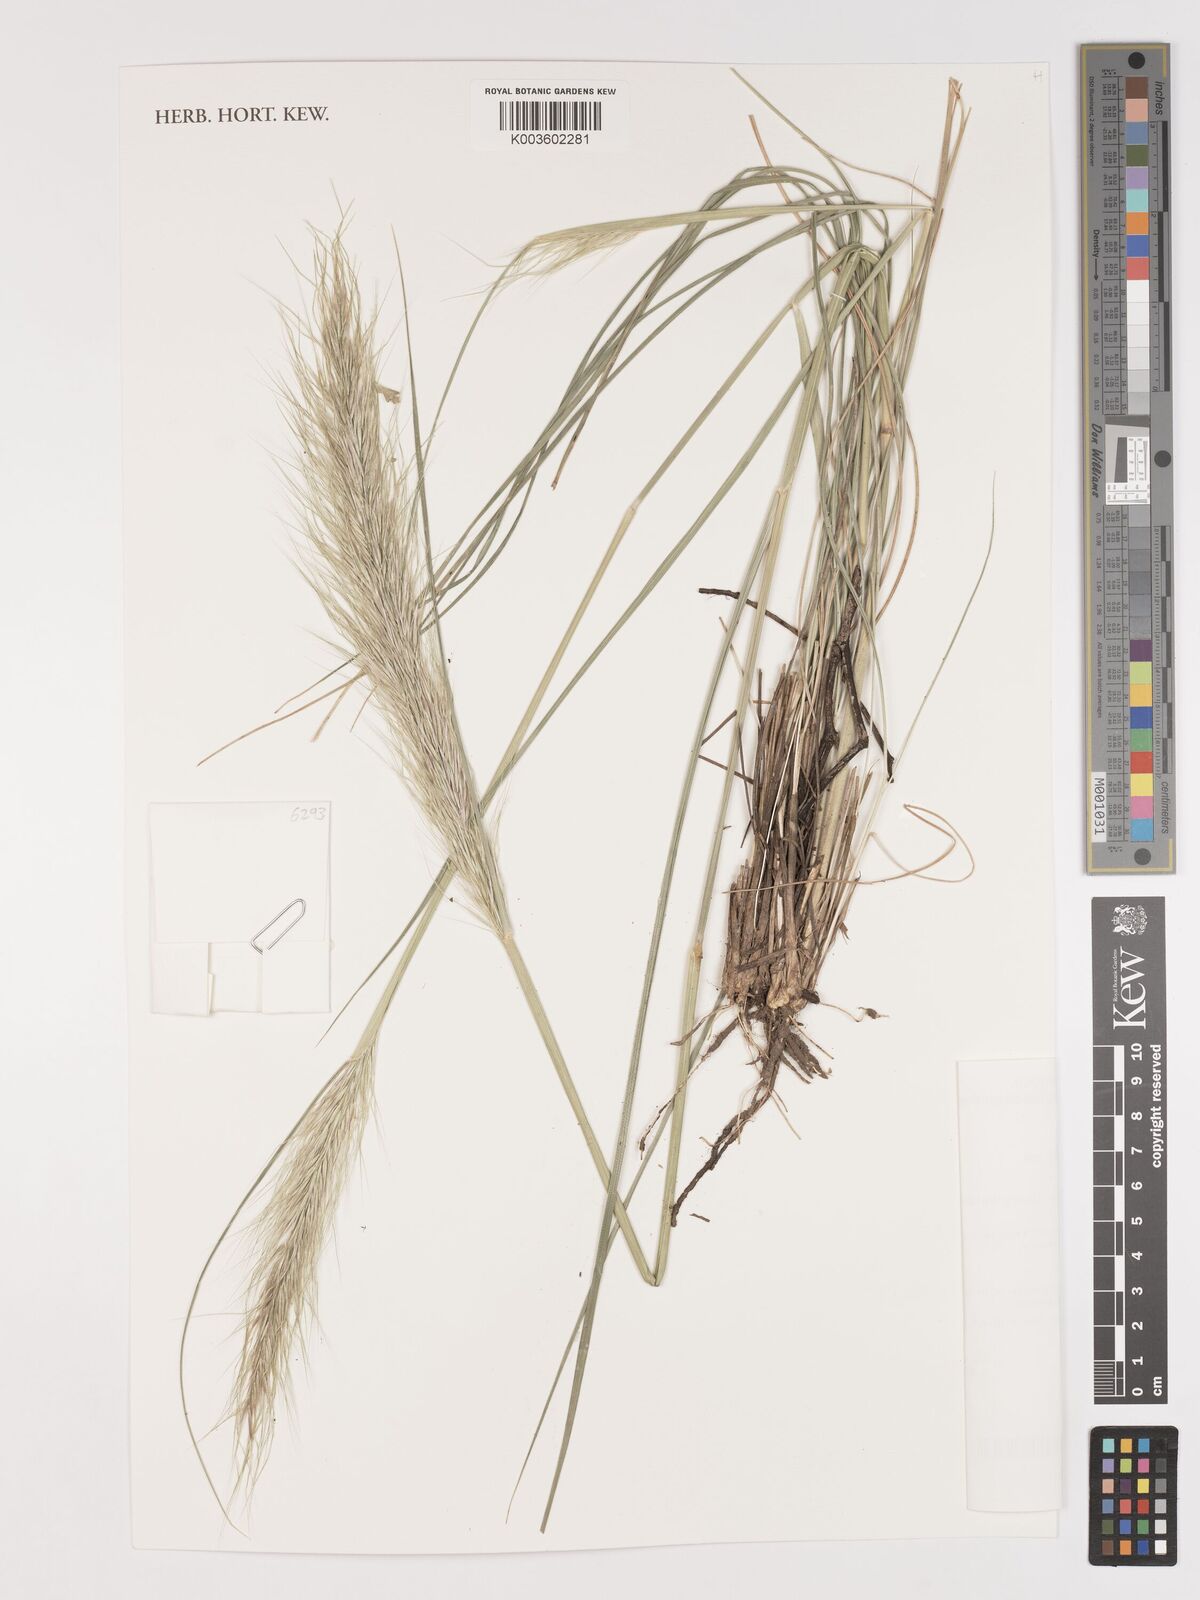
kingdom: Plantae
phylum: Tracheophyta
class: Liliopsida
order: Poales
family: Poaceae
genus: Stipa
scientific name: Stipa
